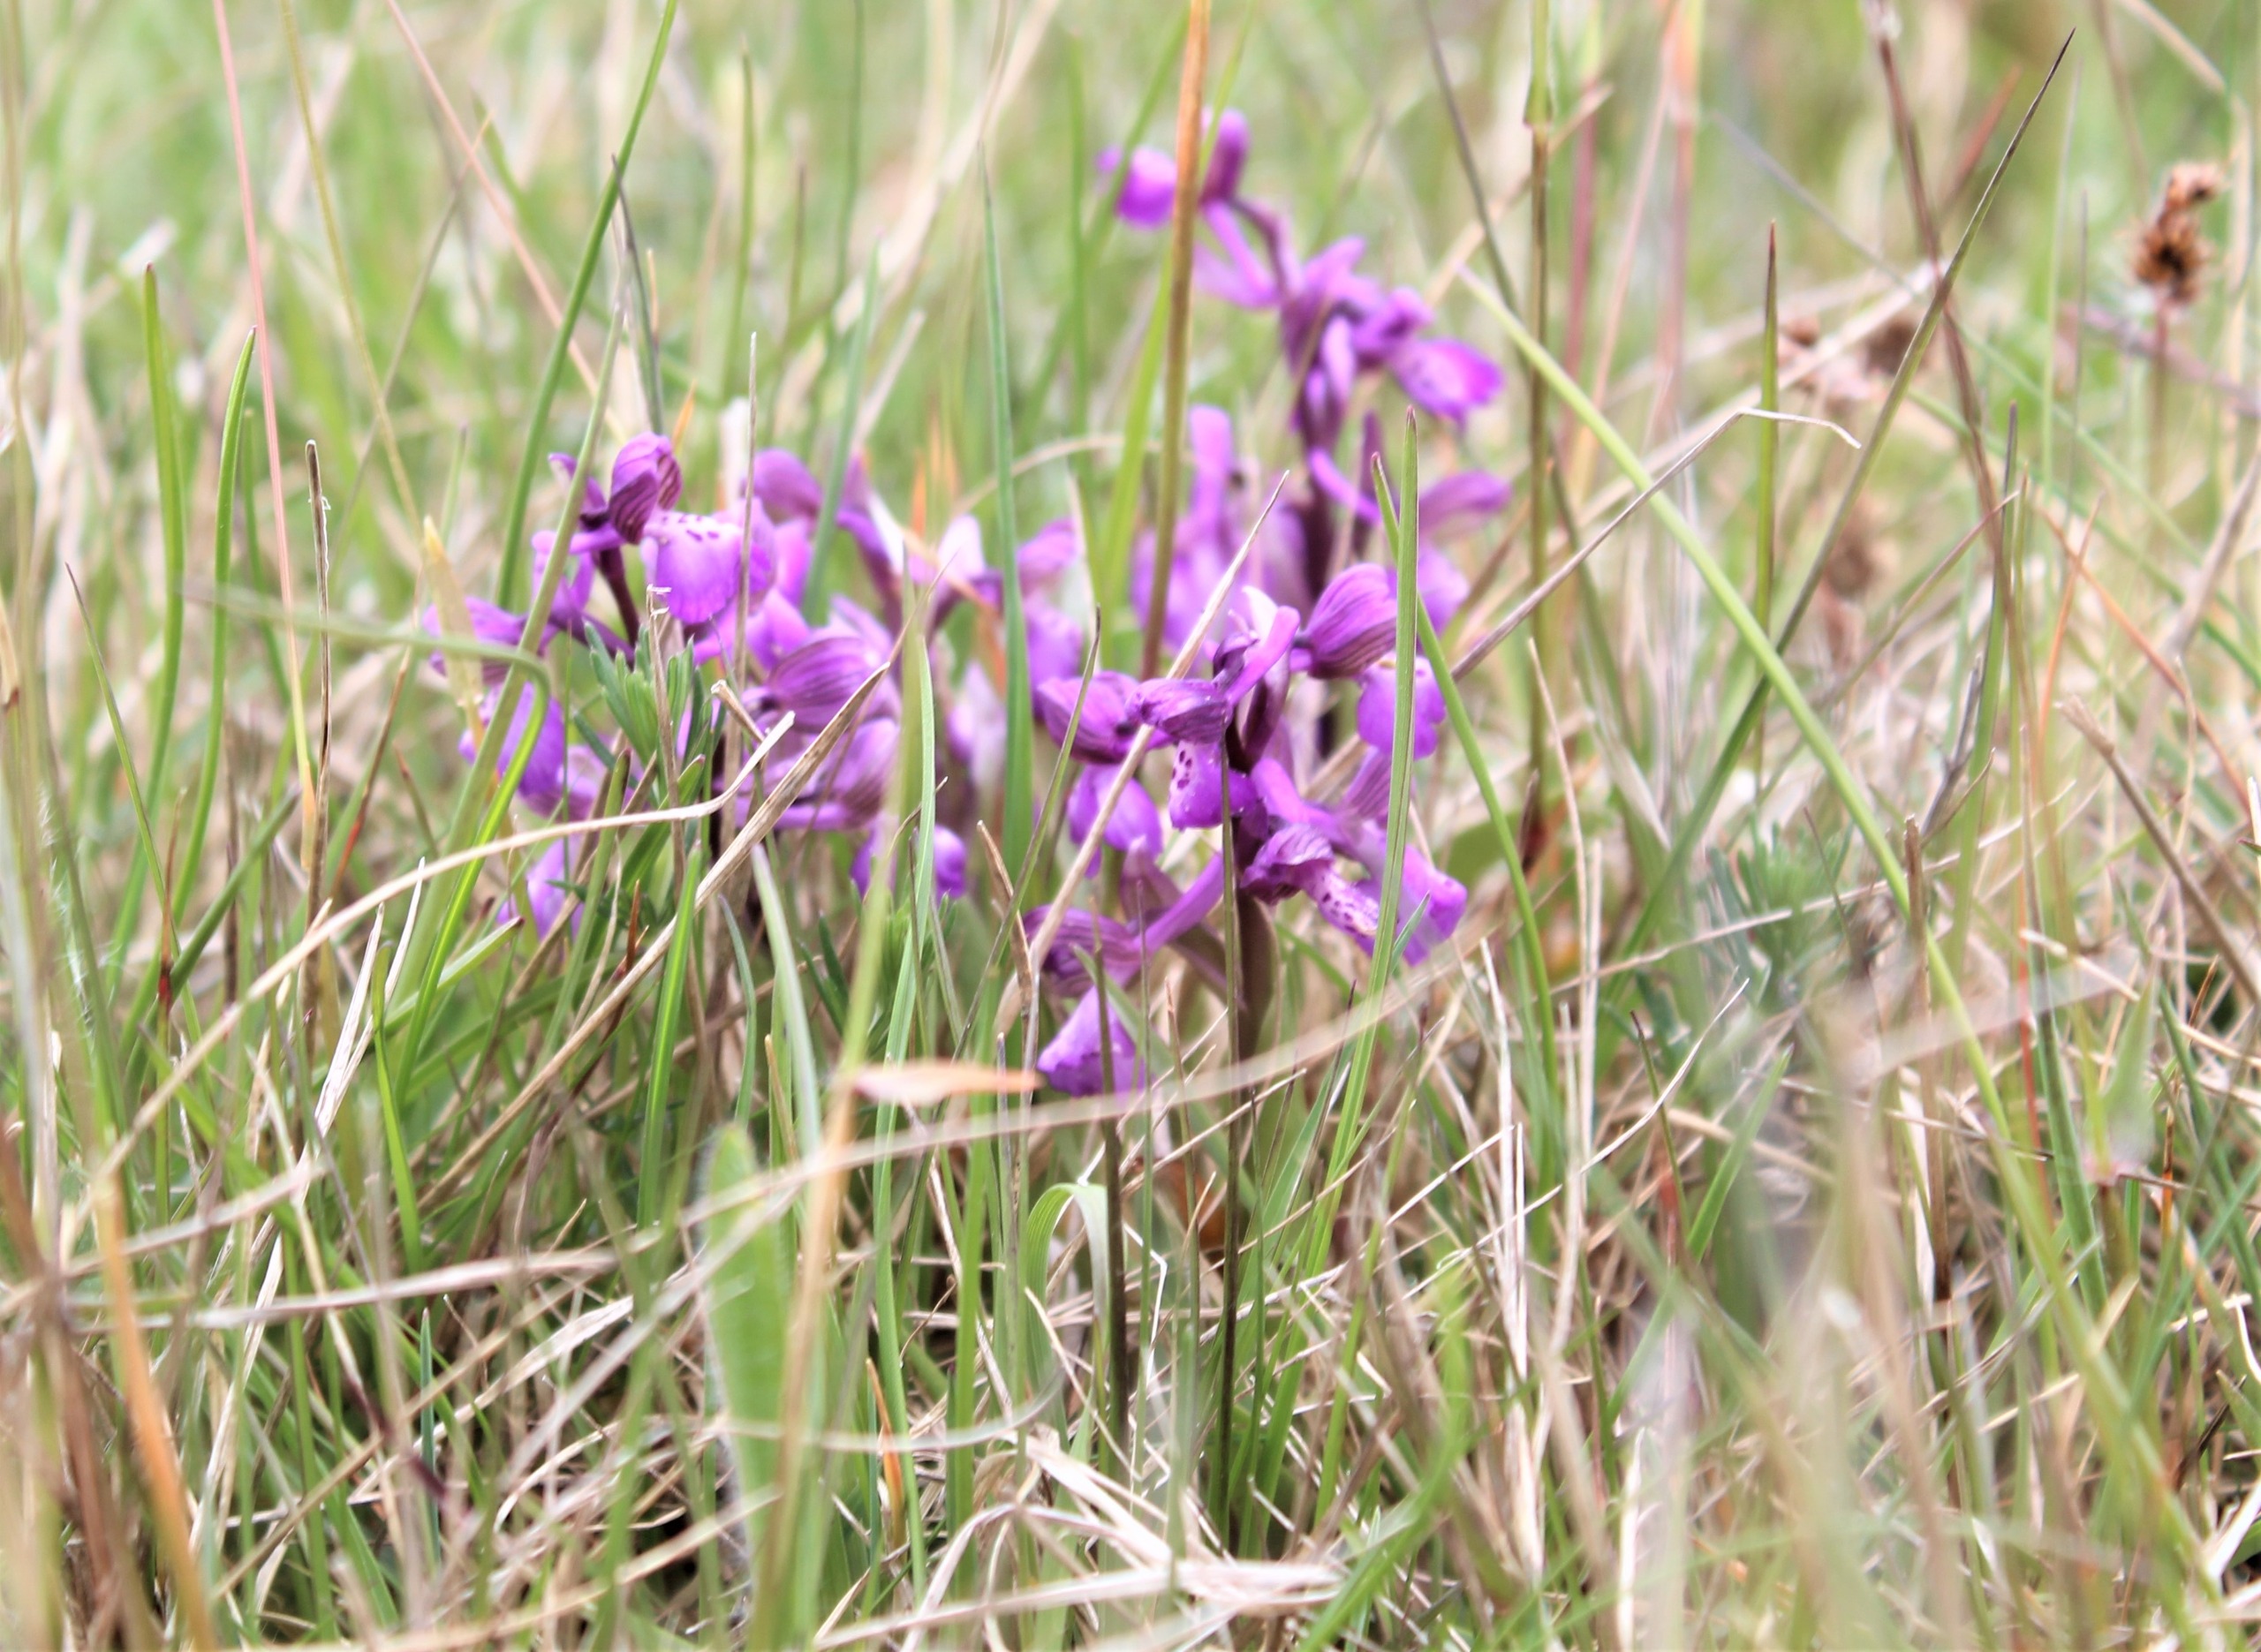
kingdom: Plantae
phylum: Tracheophyta
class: Liliopsida
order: Asparagales
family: Orchidaceae
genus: Anacamptis
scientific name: Anacamptis morio
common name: Salepgøgeurt
